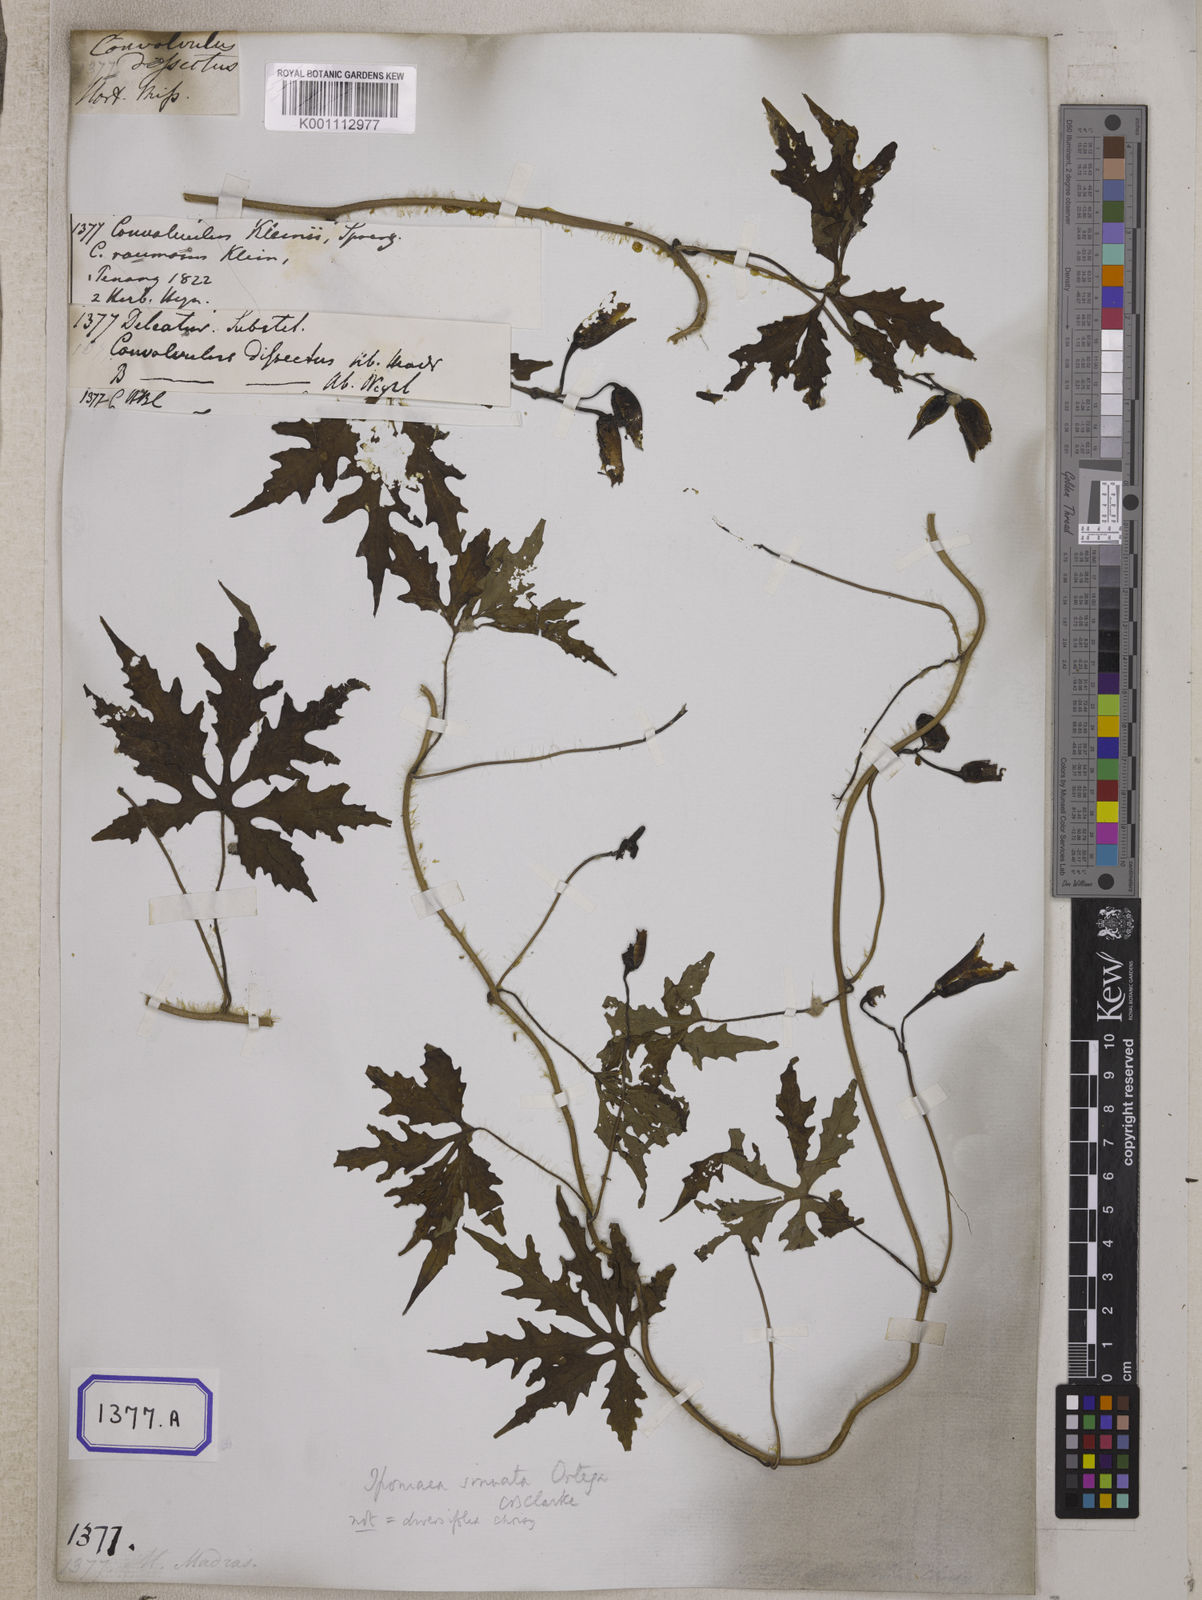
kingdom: Plantae
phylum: Tracheophyta
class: Magnoliopsida
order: Solanales
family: Convolvulaceae
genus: Convolvulus
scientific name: Convolvulus
